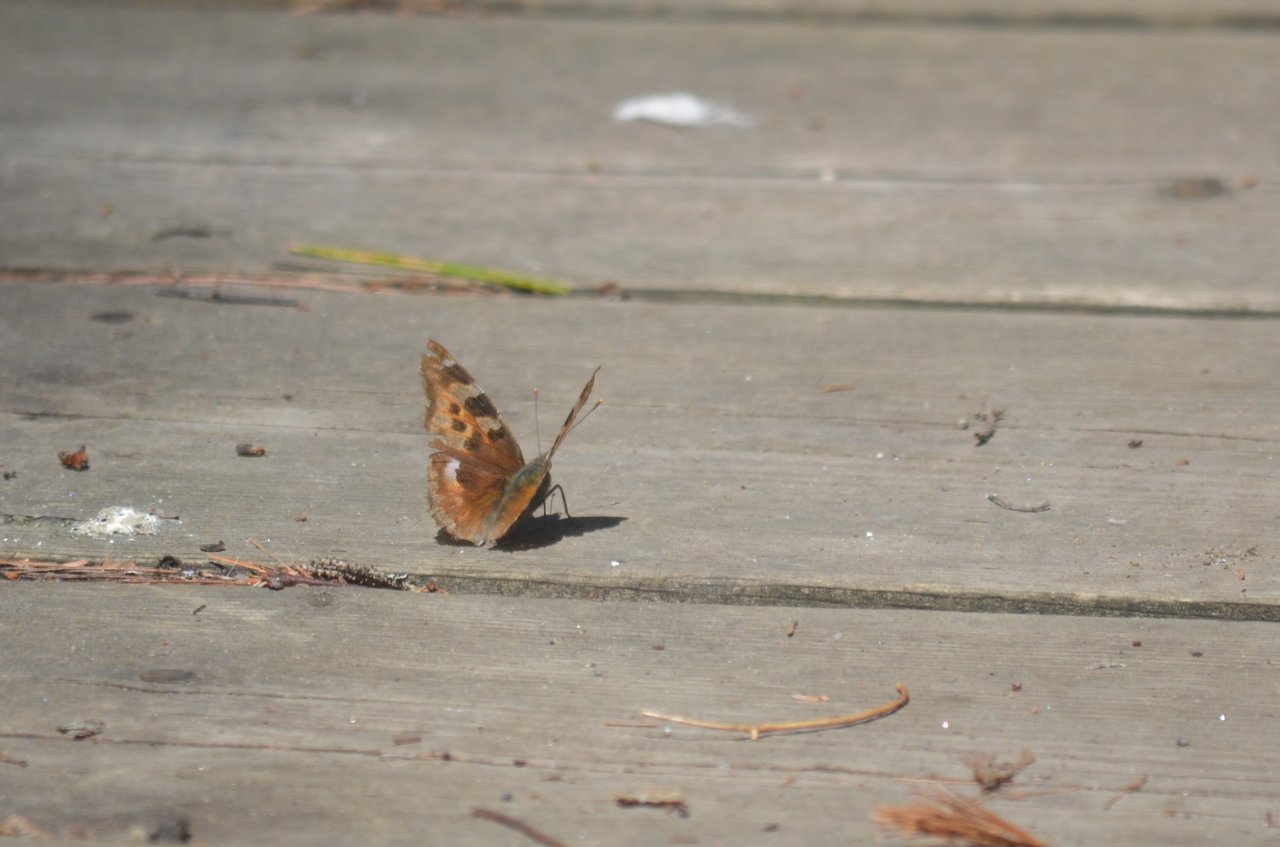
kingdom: Animalia
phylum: Arthropoda
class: Insecta
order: Lepidoptera
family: Nymphalidae
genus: Polygonia
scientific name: Polygonia vaualbum
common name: Compton Tortoiseshell
